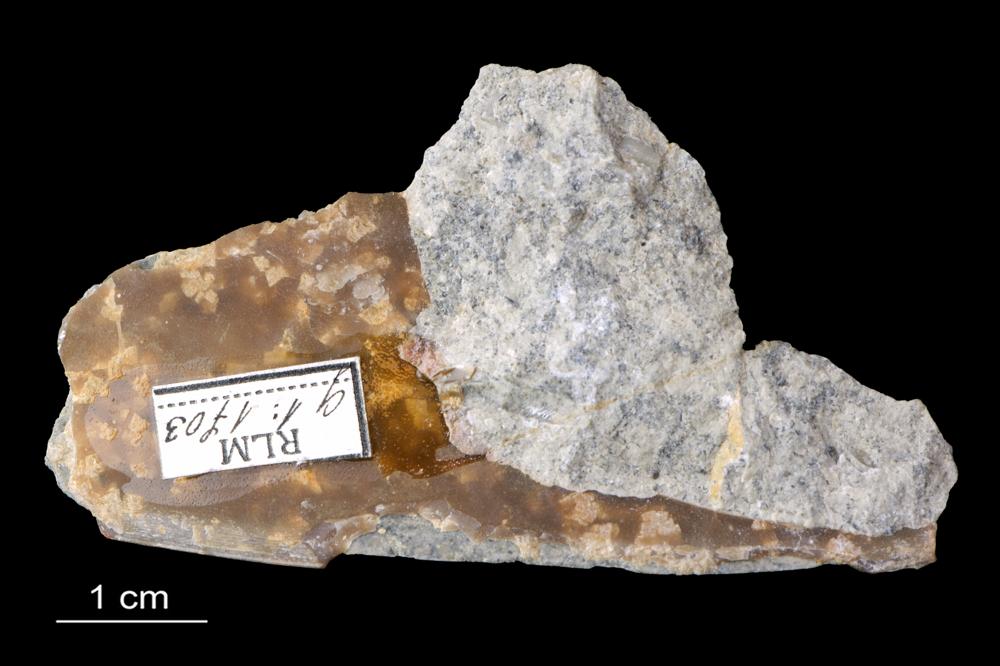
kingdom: Animalia
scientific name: Animalia
